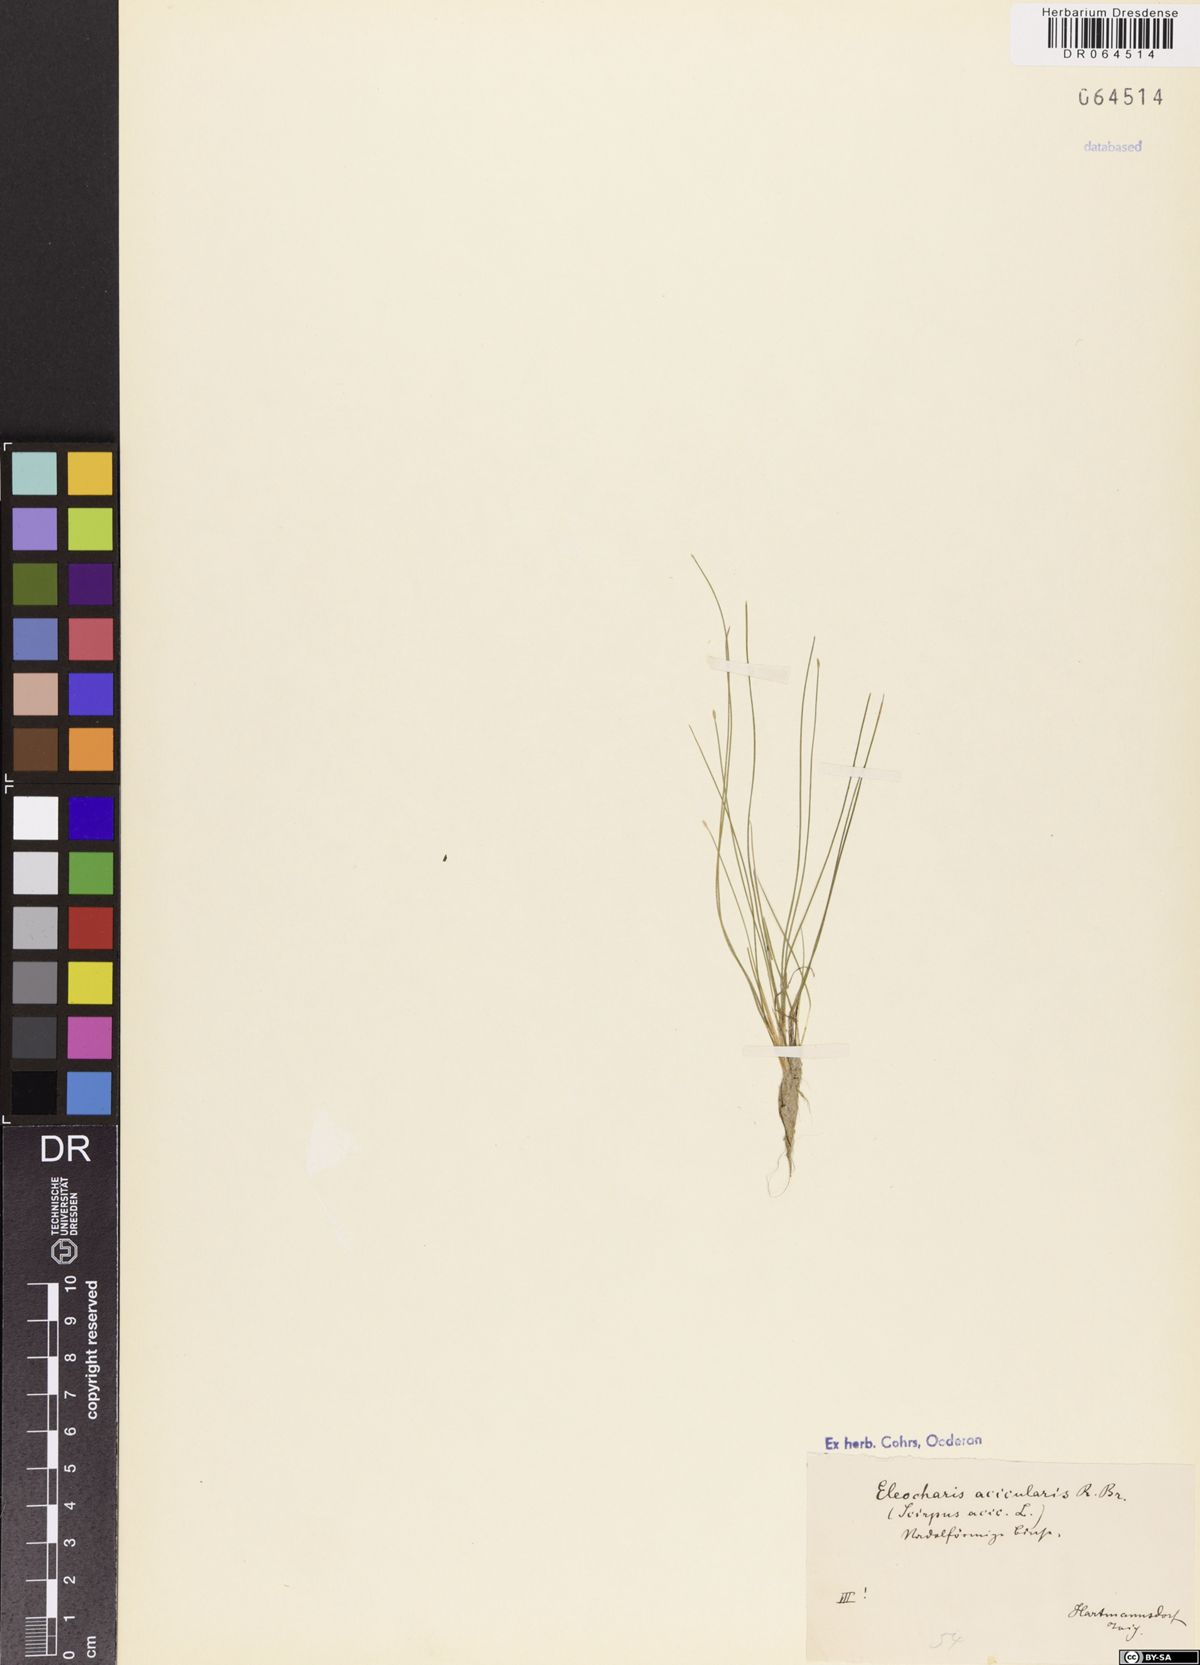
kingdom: Plantae
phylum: Tracheophyta
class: Liliopsida
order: Poales
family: Cyperaceae
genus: Eleocharis
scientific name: Eleocharis acicularis
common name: Needle spike-rush
